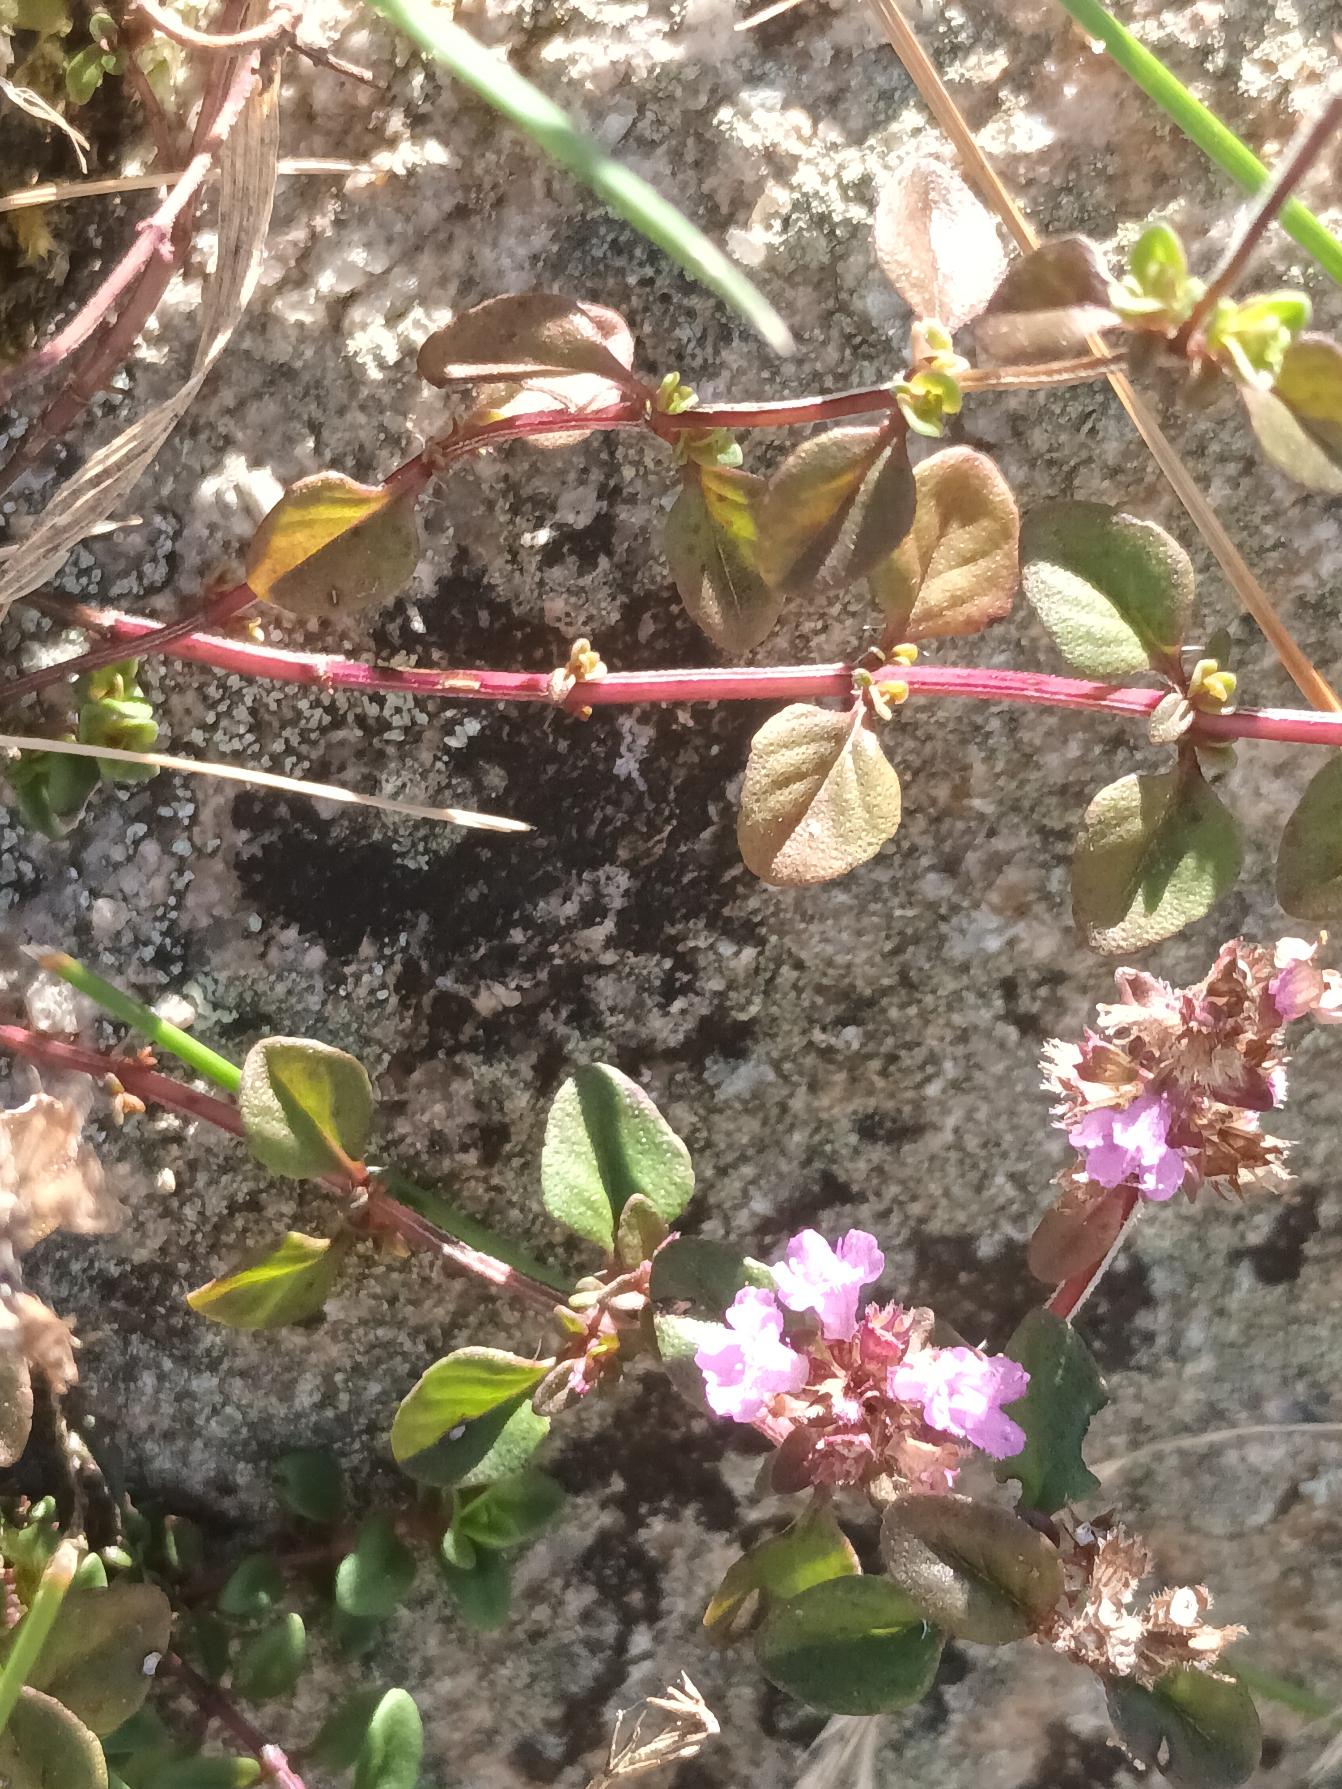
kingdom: Plantae
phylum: Tracheophyta
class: Magnoliopsida
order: Lamiales
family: Lamiaceae
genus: Thymus
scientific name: Thymus pulegioides
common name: Bredbladet timian
